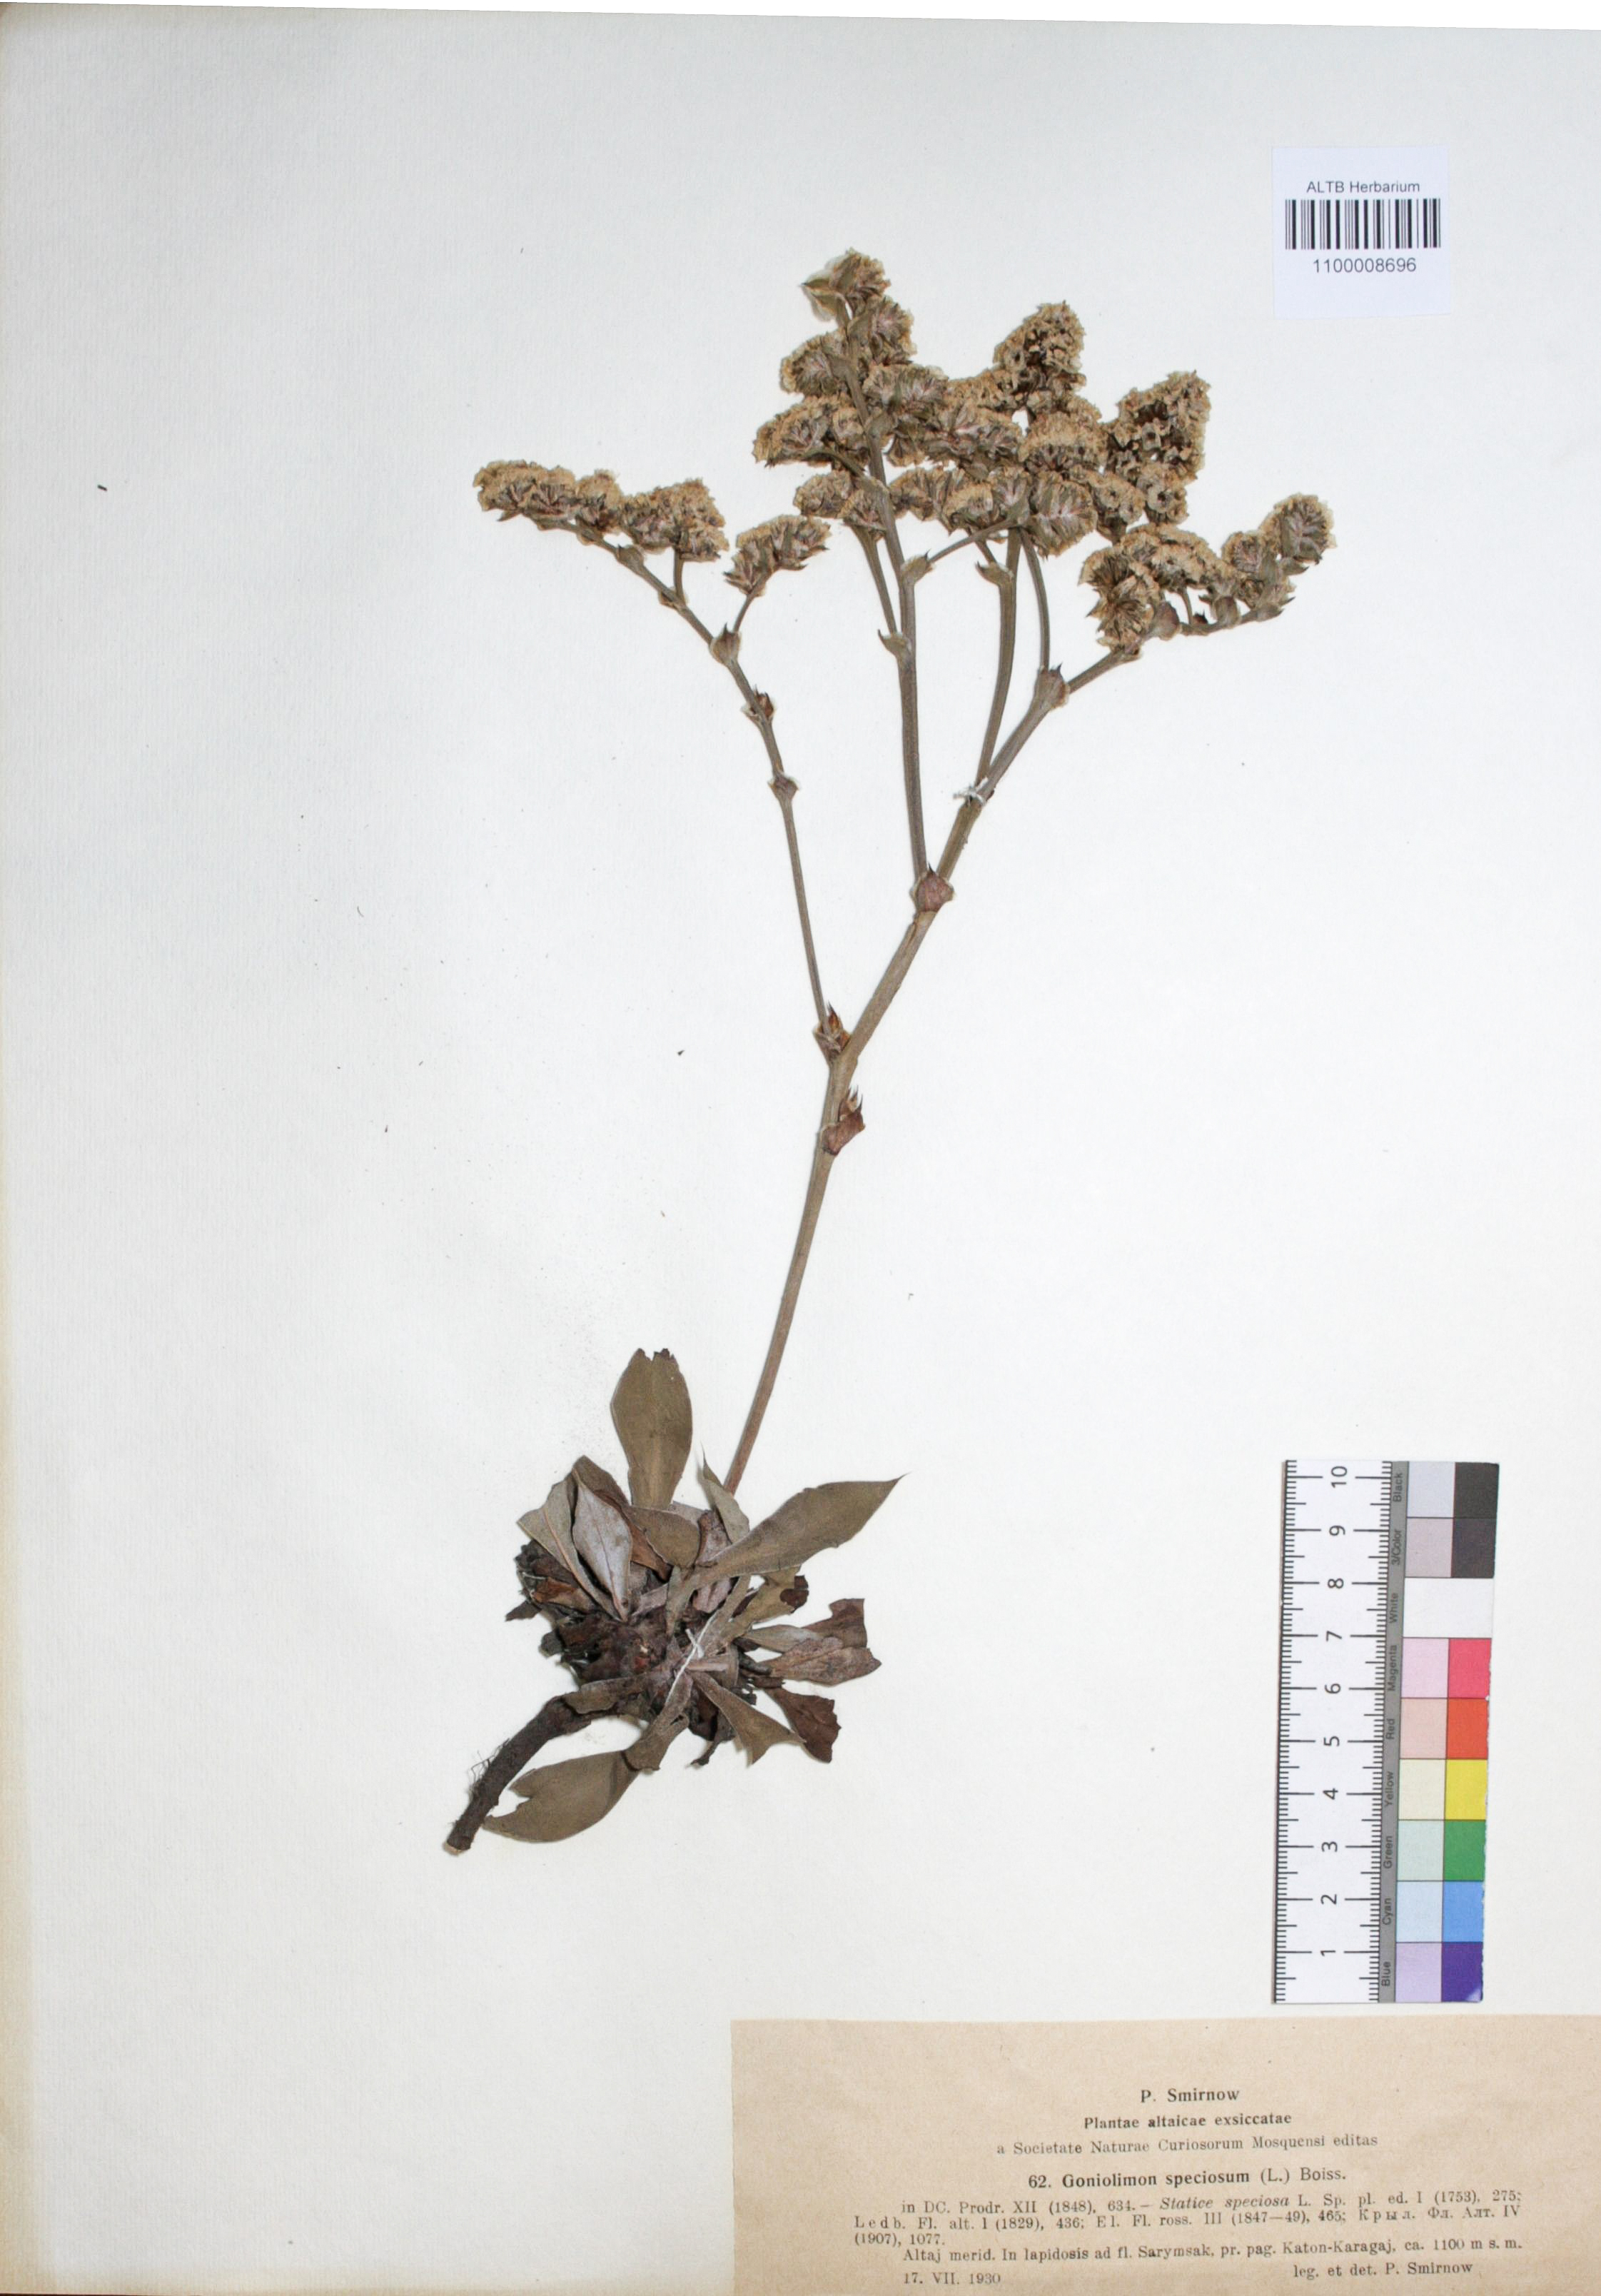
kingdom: Plantae
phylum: Tracheophyta
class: Magnoliopsida
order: Caryophyllales
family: Plumbaginaceae
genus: Goniolimon
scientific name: Goniolimon speciosum
